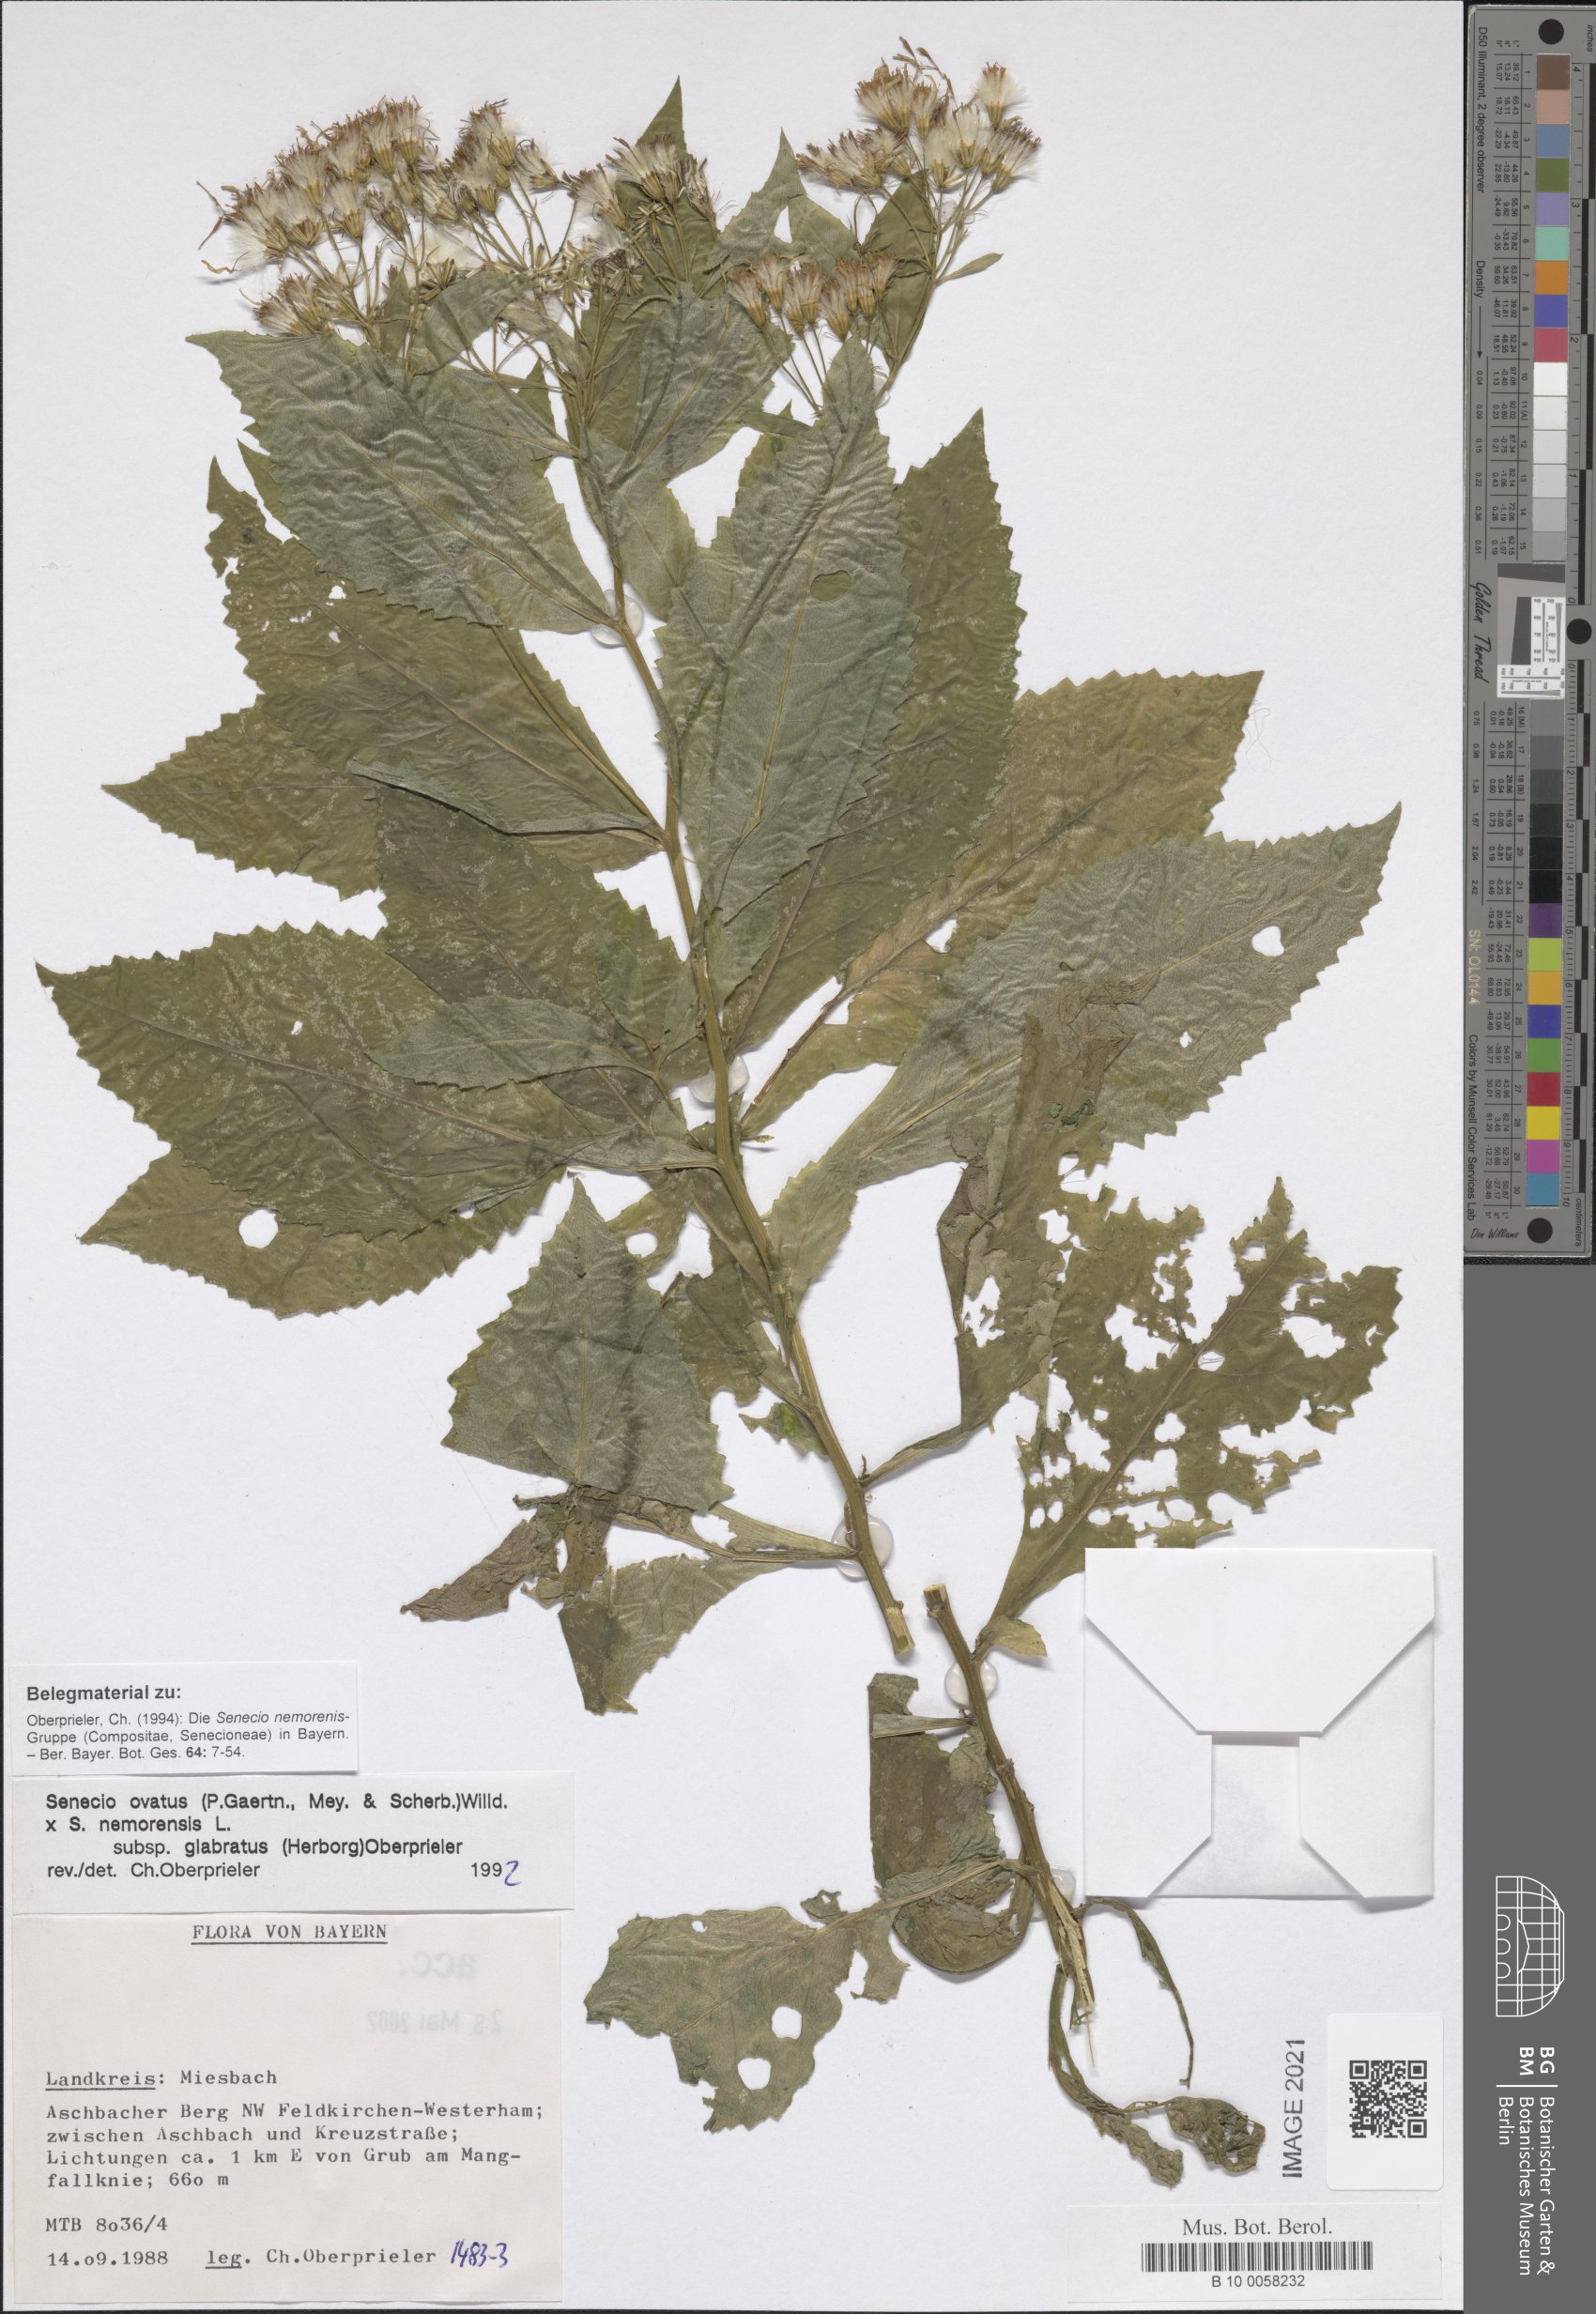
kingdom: Plantae
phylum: Tracheophyta
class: Magnoliopsida
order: Asterales
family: Asteraceae
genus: Senecio
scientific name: Senecio ovatus
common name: Wood ragwort
